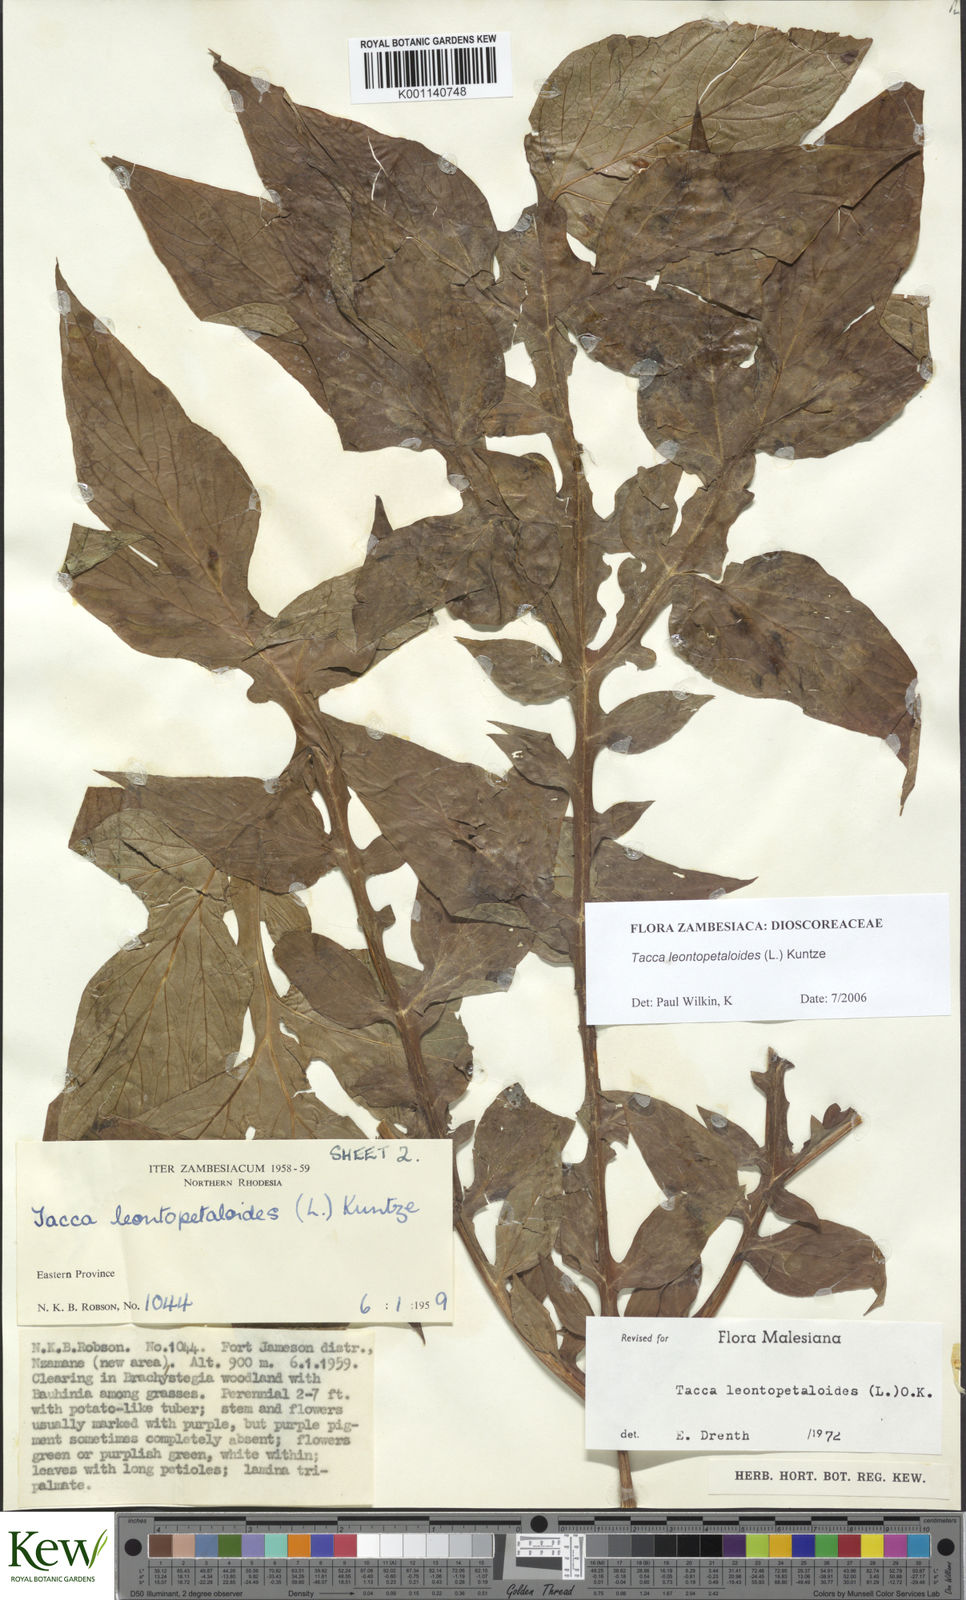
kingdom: Plantae
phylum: Tracheophyta
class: Liliopsida
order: Dioscoreales
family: Dioscoreaceae
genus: Tacca
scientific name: Tacca leontopetaloides
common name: Arrowroot
